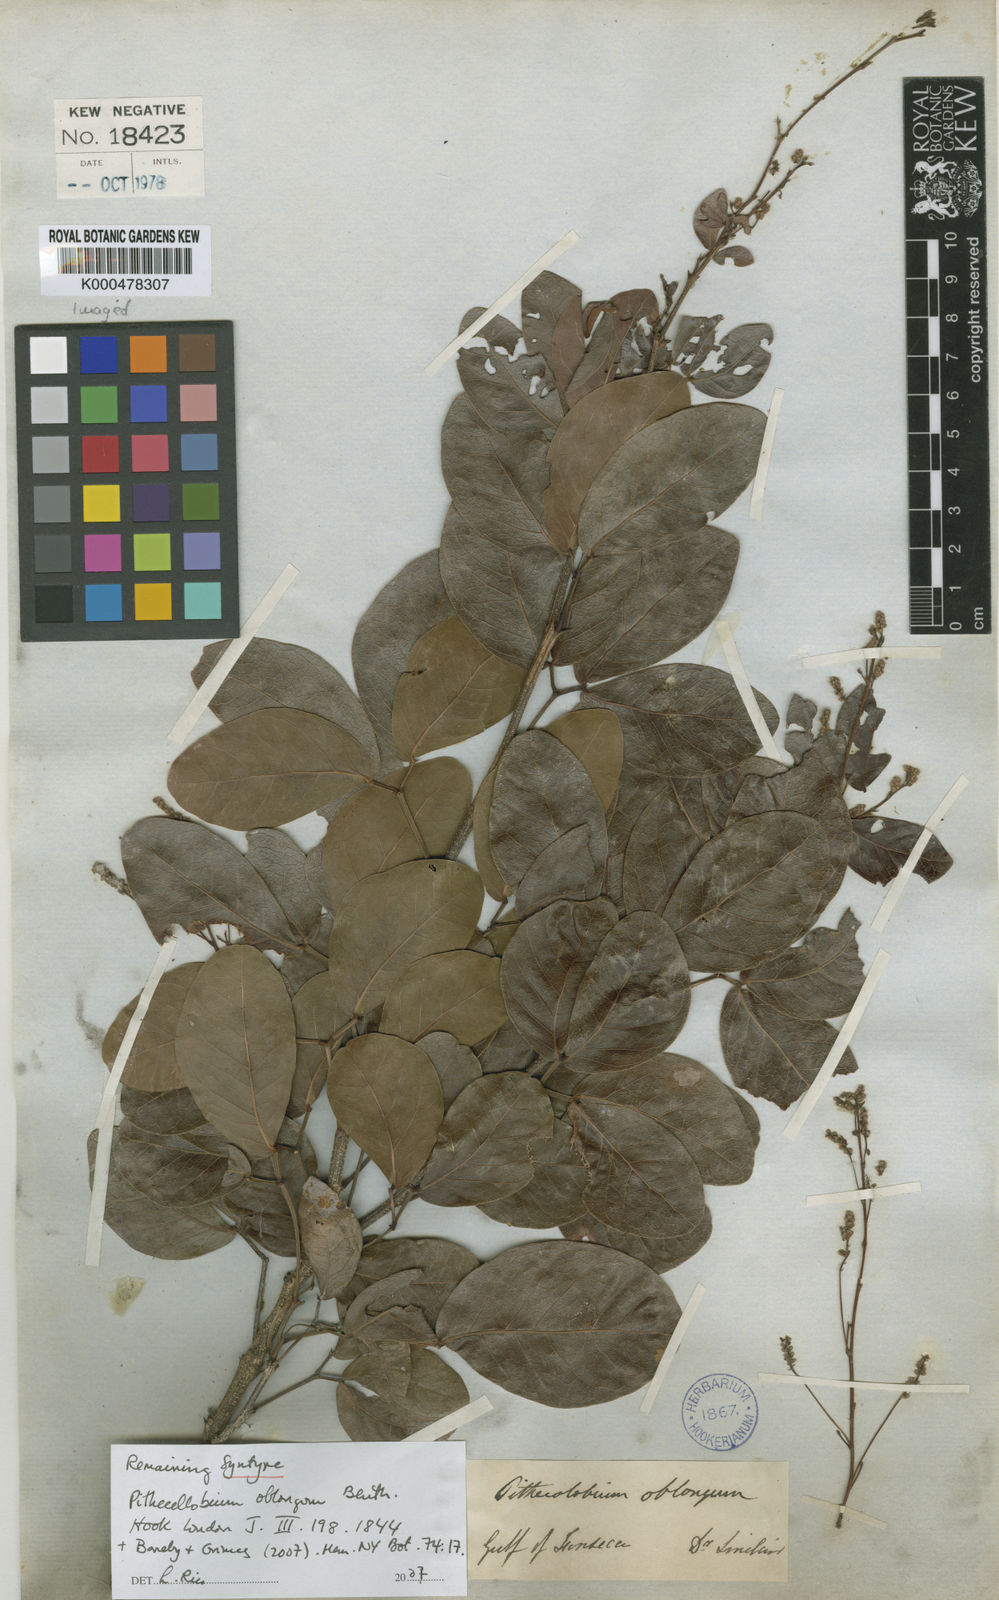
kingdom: Plantae
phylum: Tracheophyta
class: Magnoliopsida
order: Fabales
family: Fabaceae
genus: Pithecellobium
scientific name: Pithecellobium oblongum
